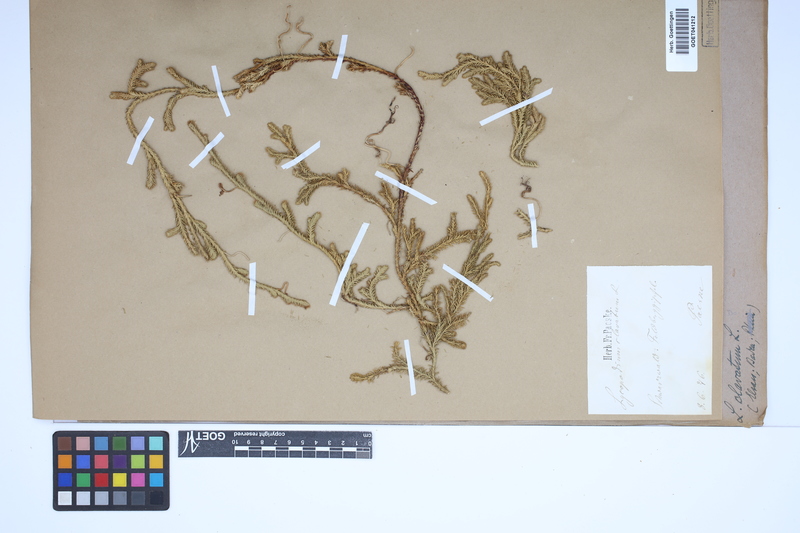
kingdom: Plantae
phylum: Tracheophyta
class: Lycopodiopsida
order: Lycopodiales
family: Lycopodiaceae
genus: Lycopodium
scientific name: Lycopodium clavatum
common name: Stag's-horn clubmoss
